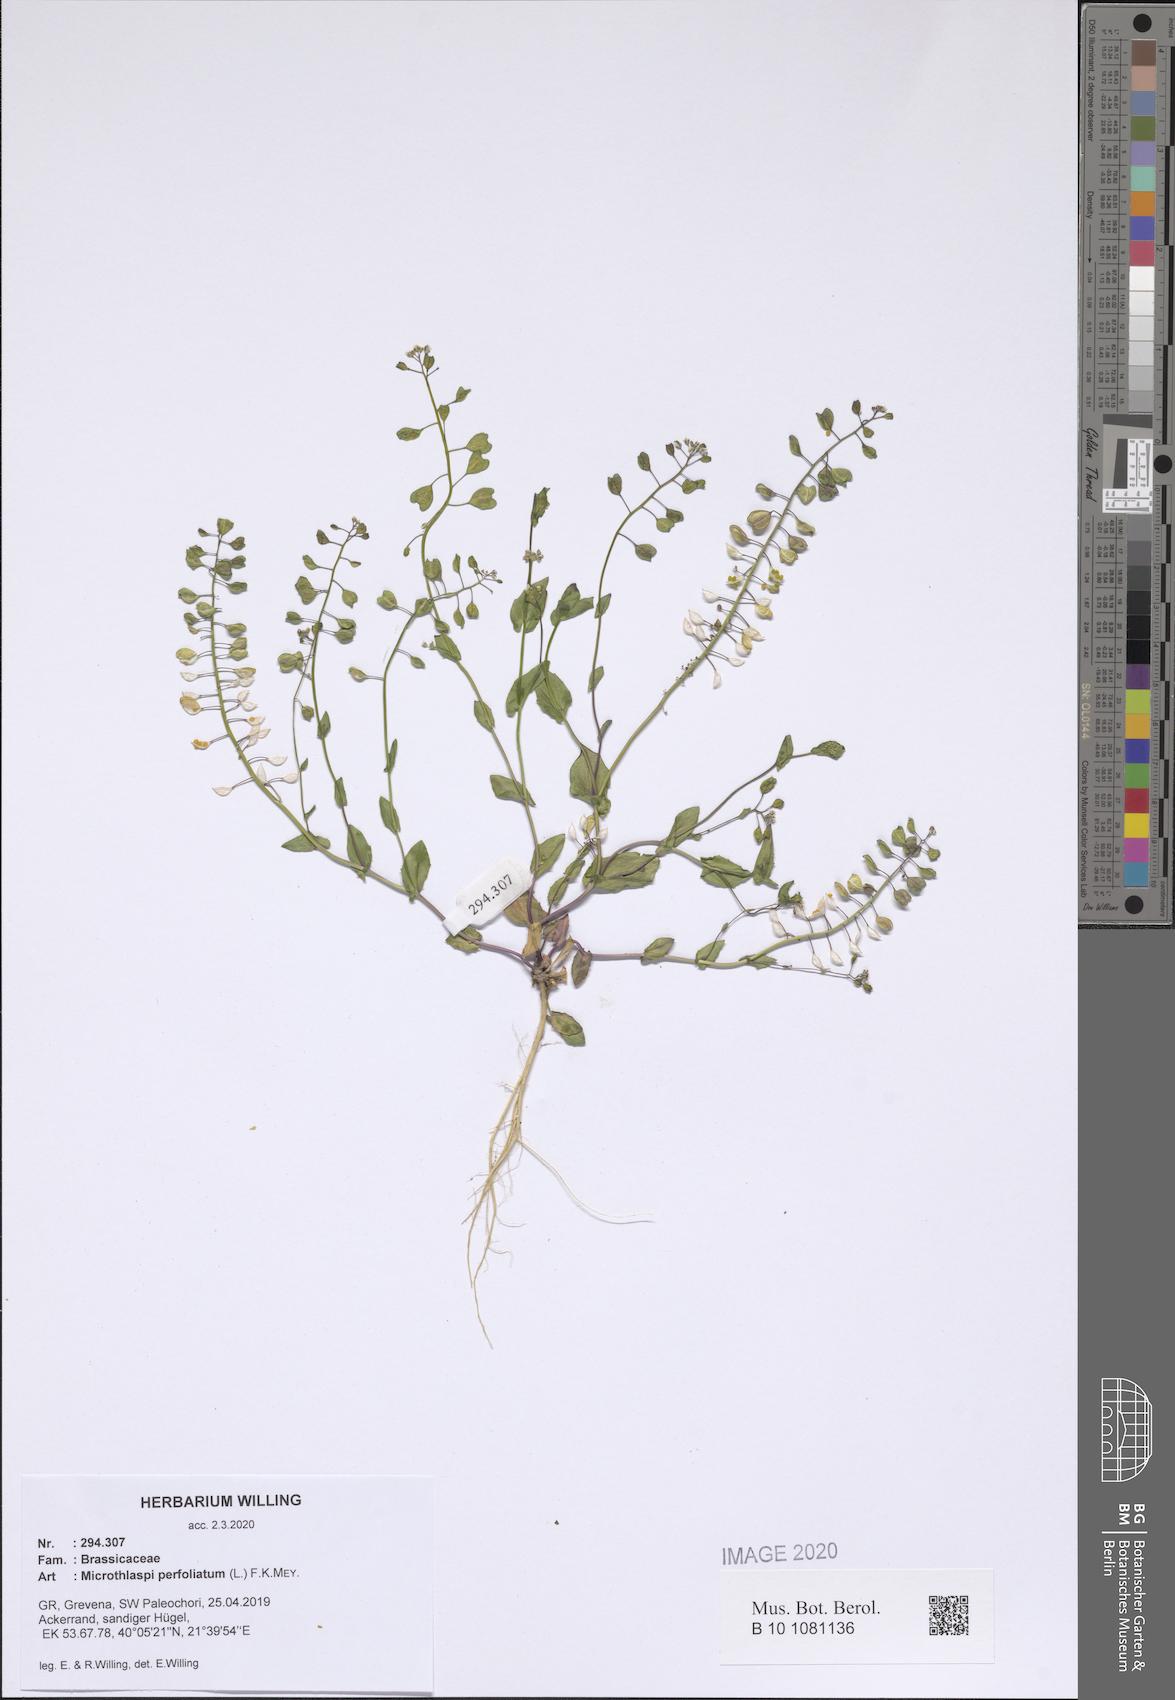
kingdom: Plantae
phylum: Tracheophyta
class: Magnoliopsida
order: Brassicales
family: Brassicaceae
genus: Noccaea
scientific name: Noccaea perfoliata
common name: Perfoliate pennycress
